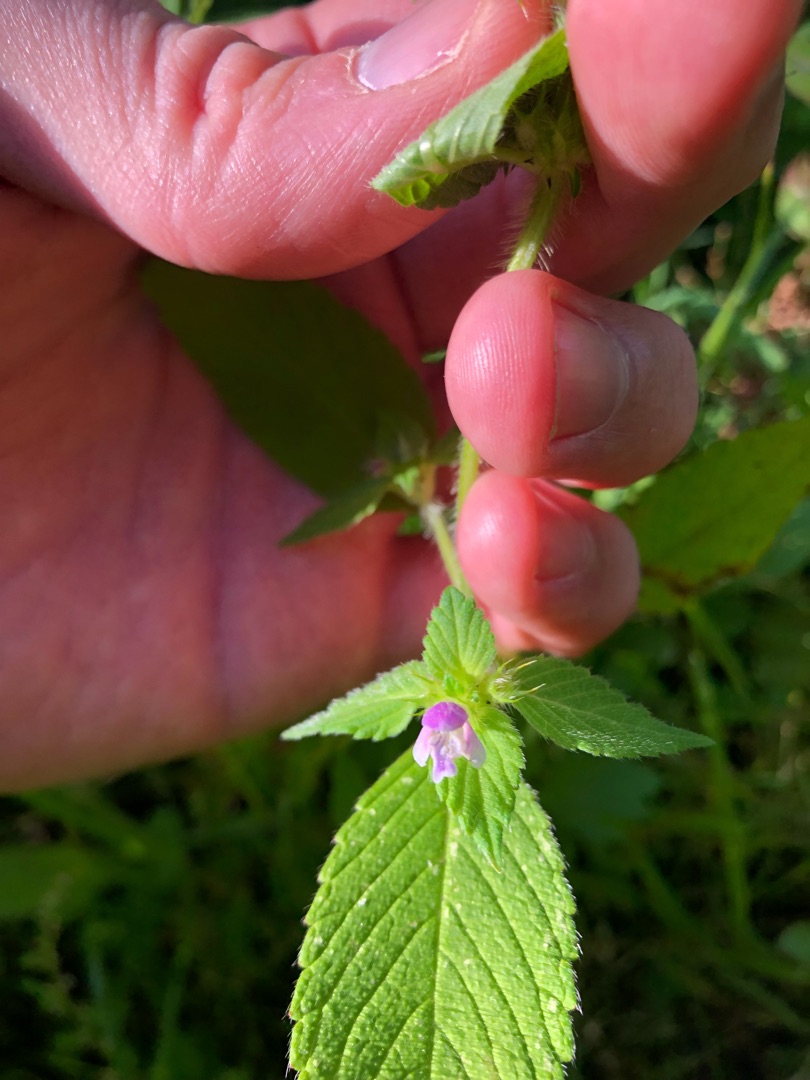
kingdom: Plantae
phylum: Tracheophyta
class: Magnoliopsida
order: Lamiales
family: Lamiaceae
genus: Galeopsis
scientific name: Galeopsis bifida
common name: Skov-hanekro
